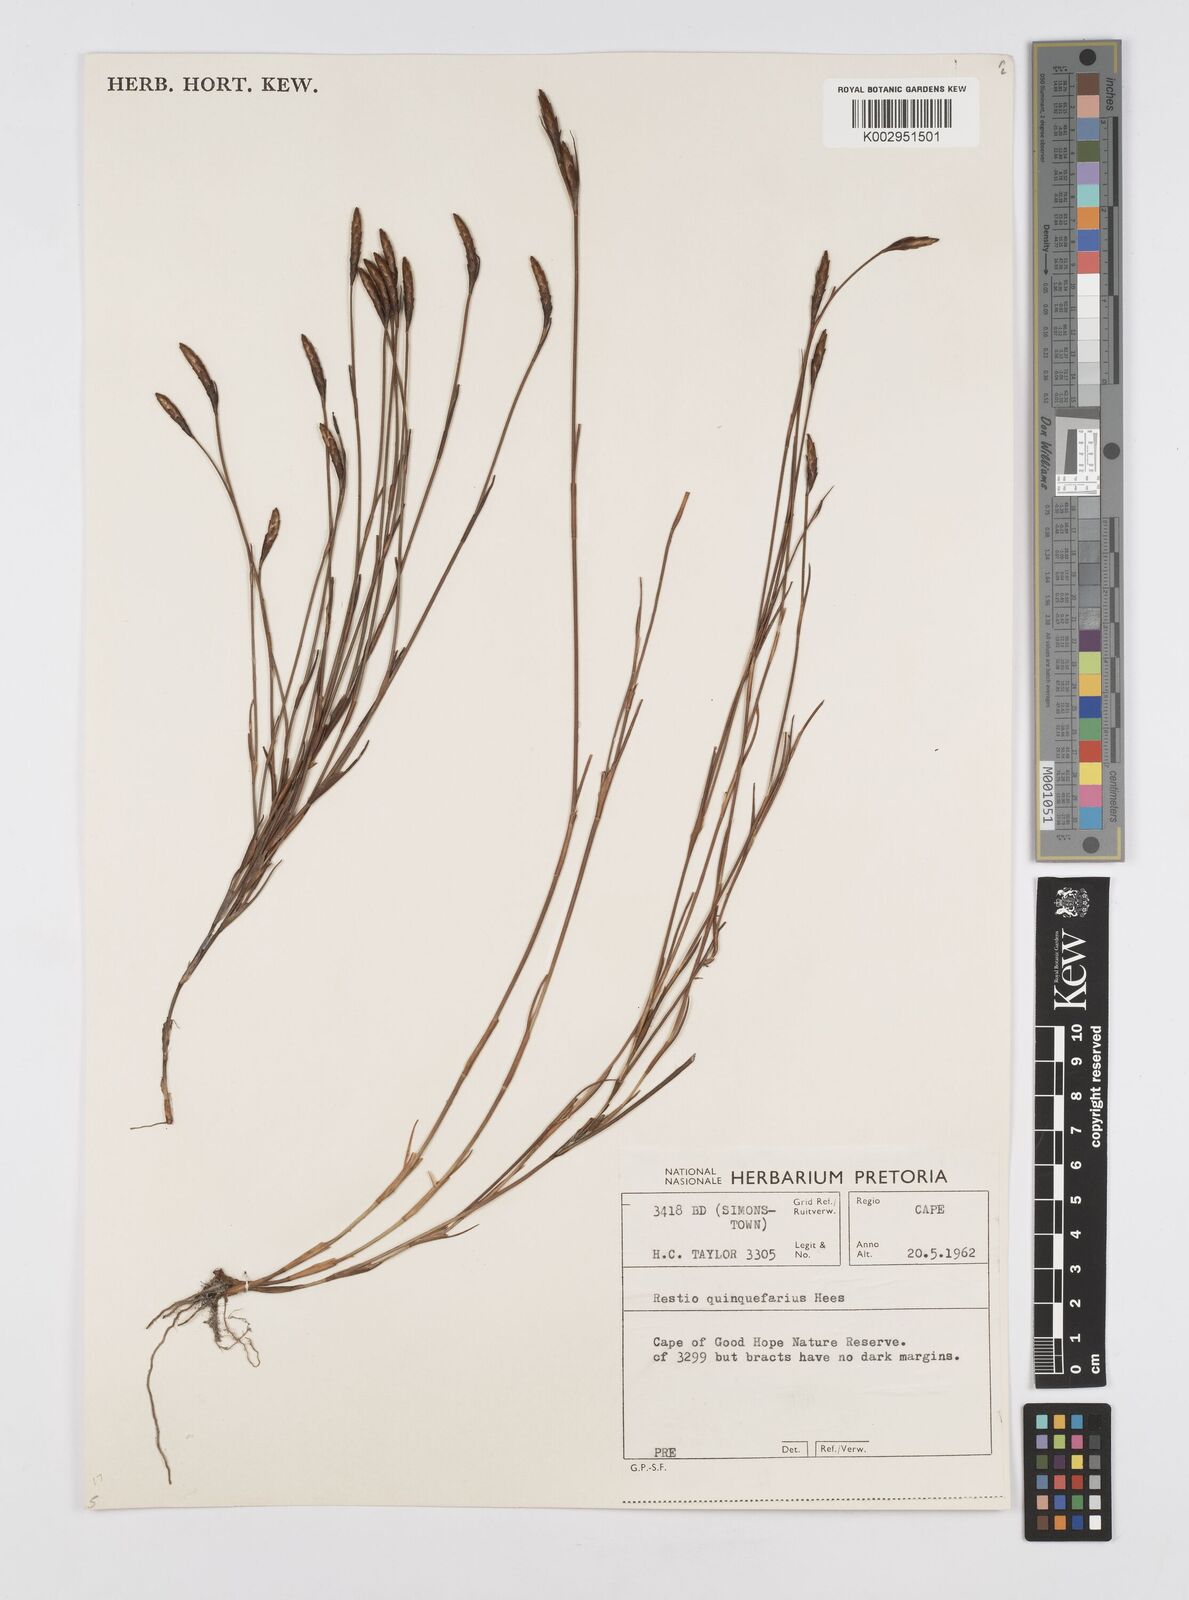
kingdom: Plantae
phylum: Tracheophyta
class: Liliopsida
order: Poales
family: Restionaceae
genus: Restio
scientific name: Restio quinquefarius
